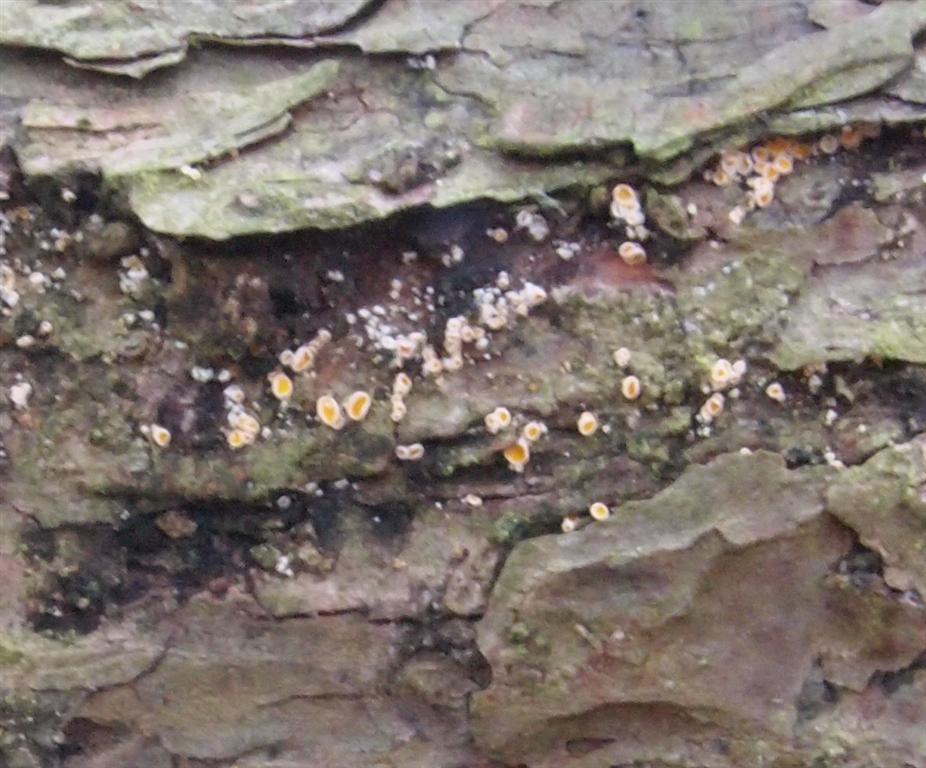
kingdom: Fungi
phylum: Ascomycota
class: Leotiomycetes
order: Helotiales
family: Lachnaceae
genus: Lachnellula
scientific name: Lachnellula calycina
